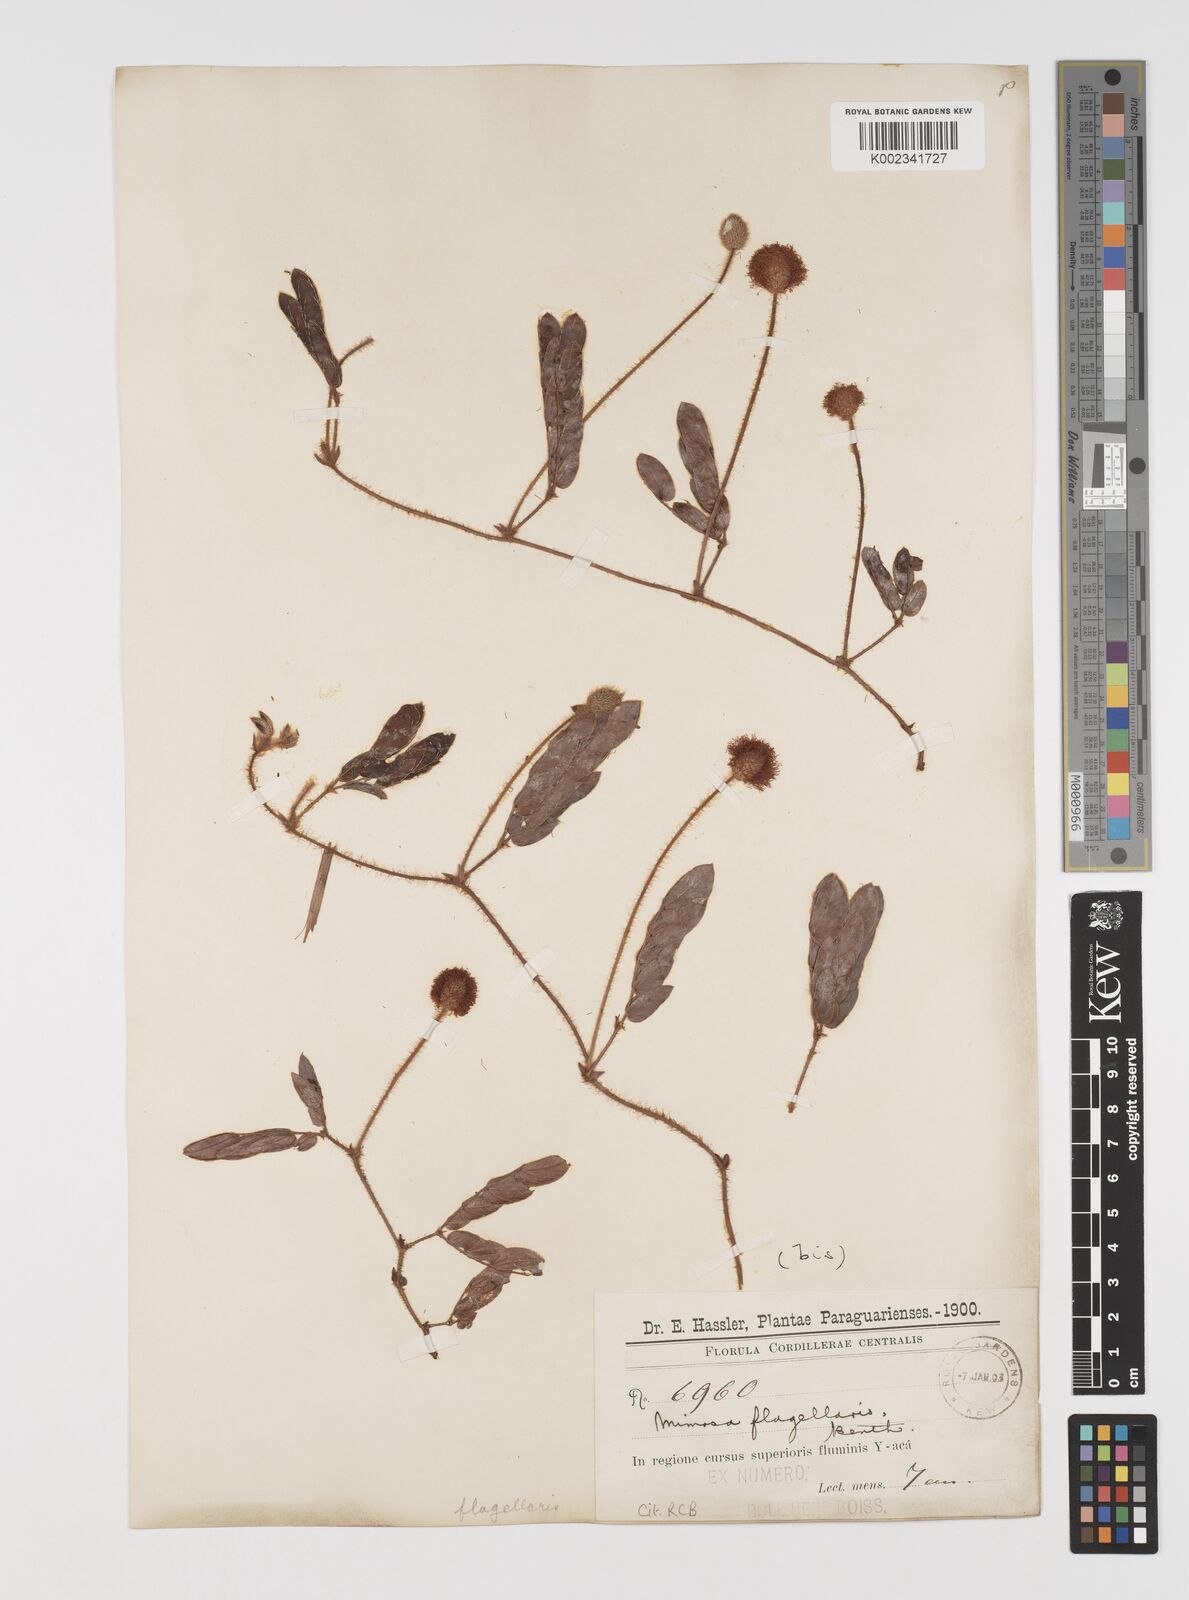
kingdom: Plantae
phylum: Tracheophyta
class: Magnoliopsida
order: Fabales
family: Fabaceae
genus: Mimosa
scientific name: Mimosa flagellaris
